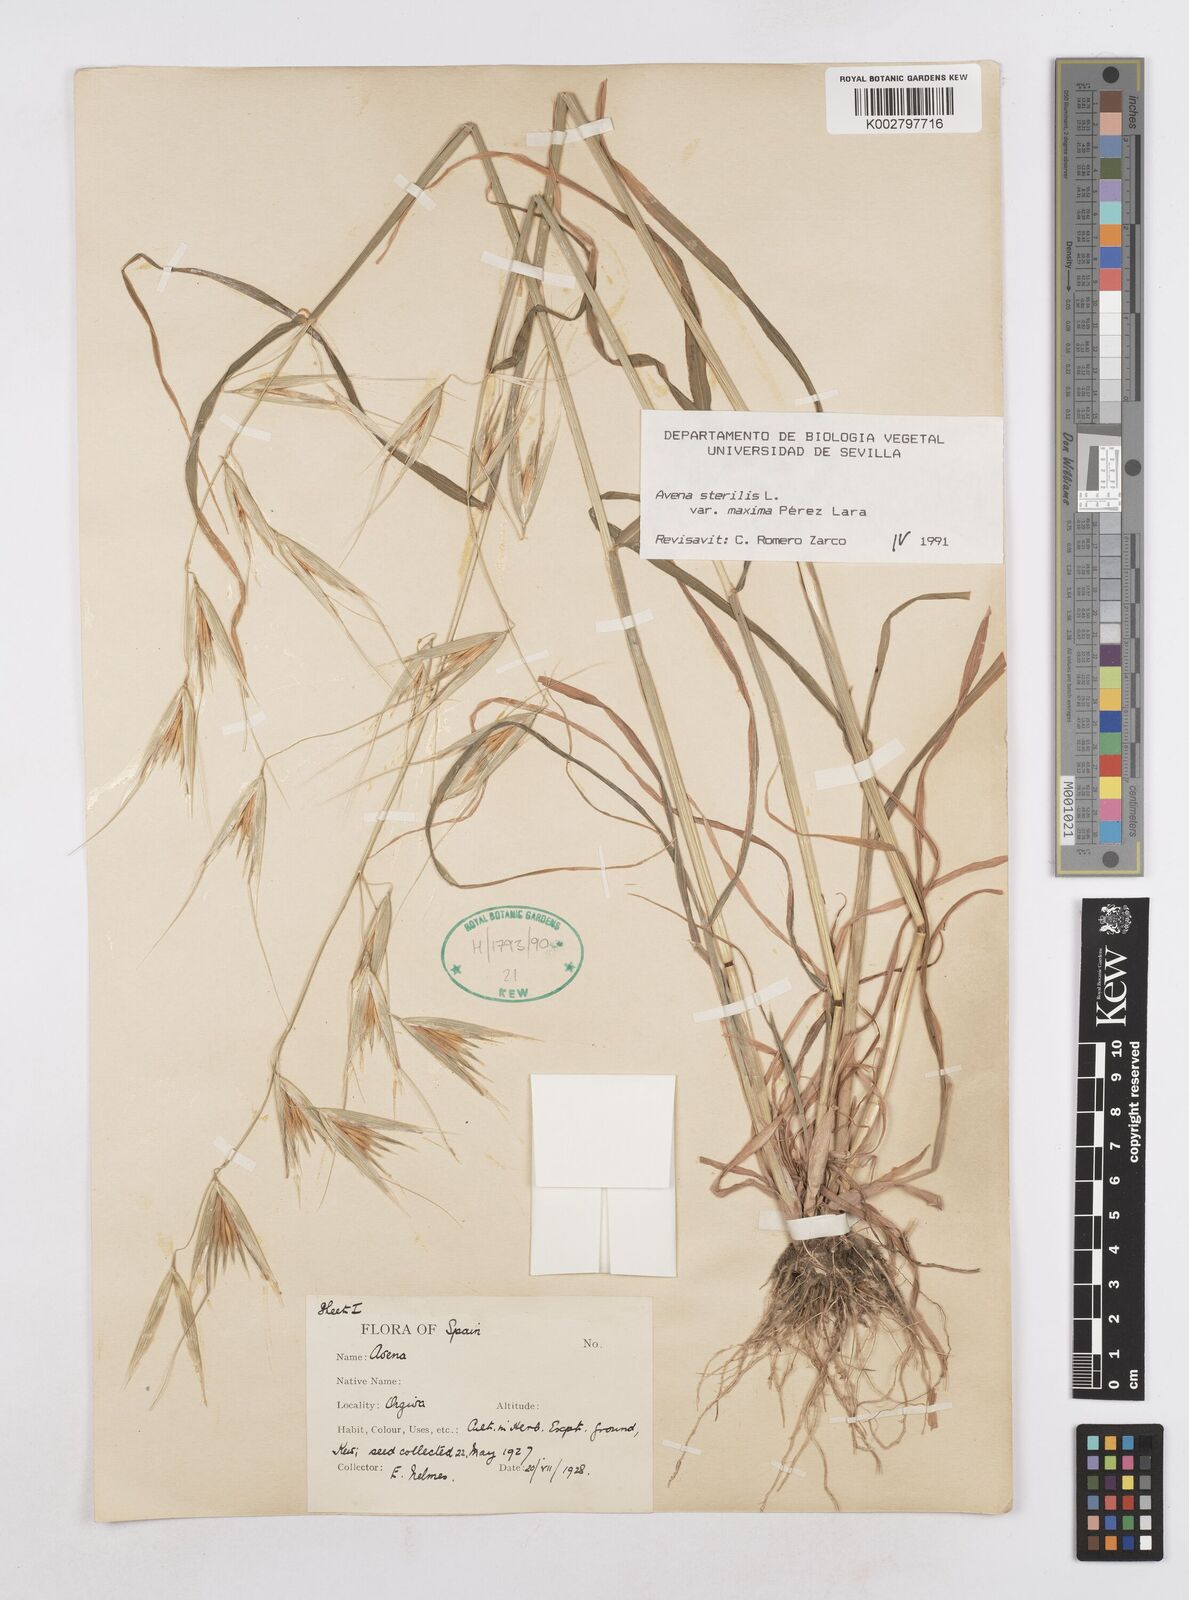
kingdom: Plantae
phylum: Tracheophyta
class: Liliopsida
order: Poales
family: Poaceae
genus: Avena
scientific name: Avena sterilis
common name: Animated oat
